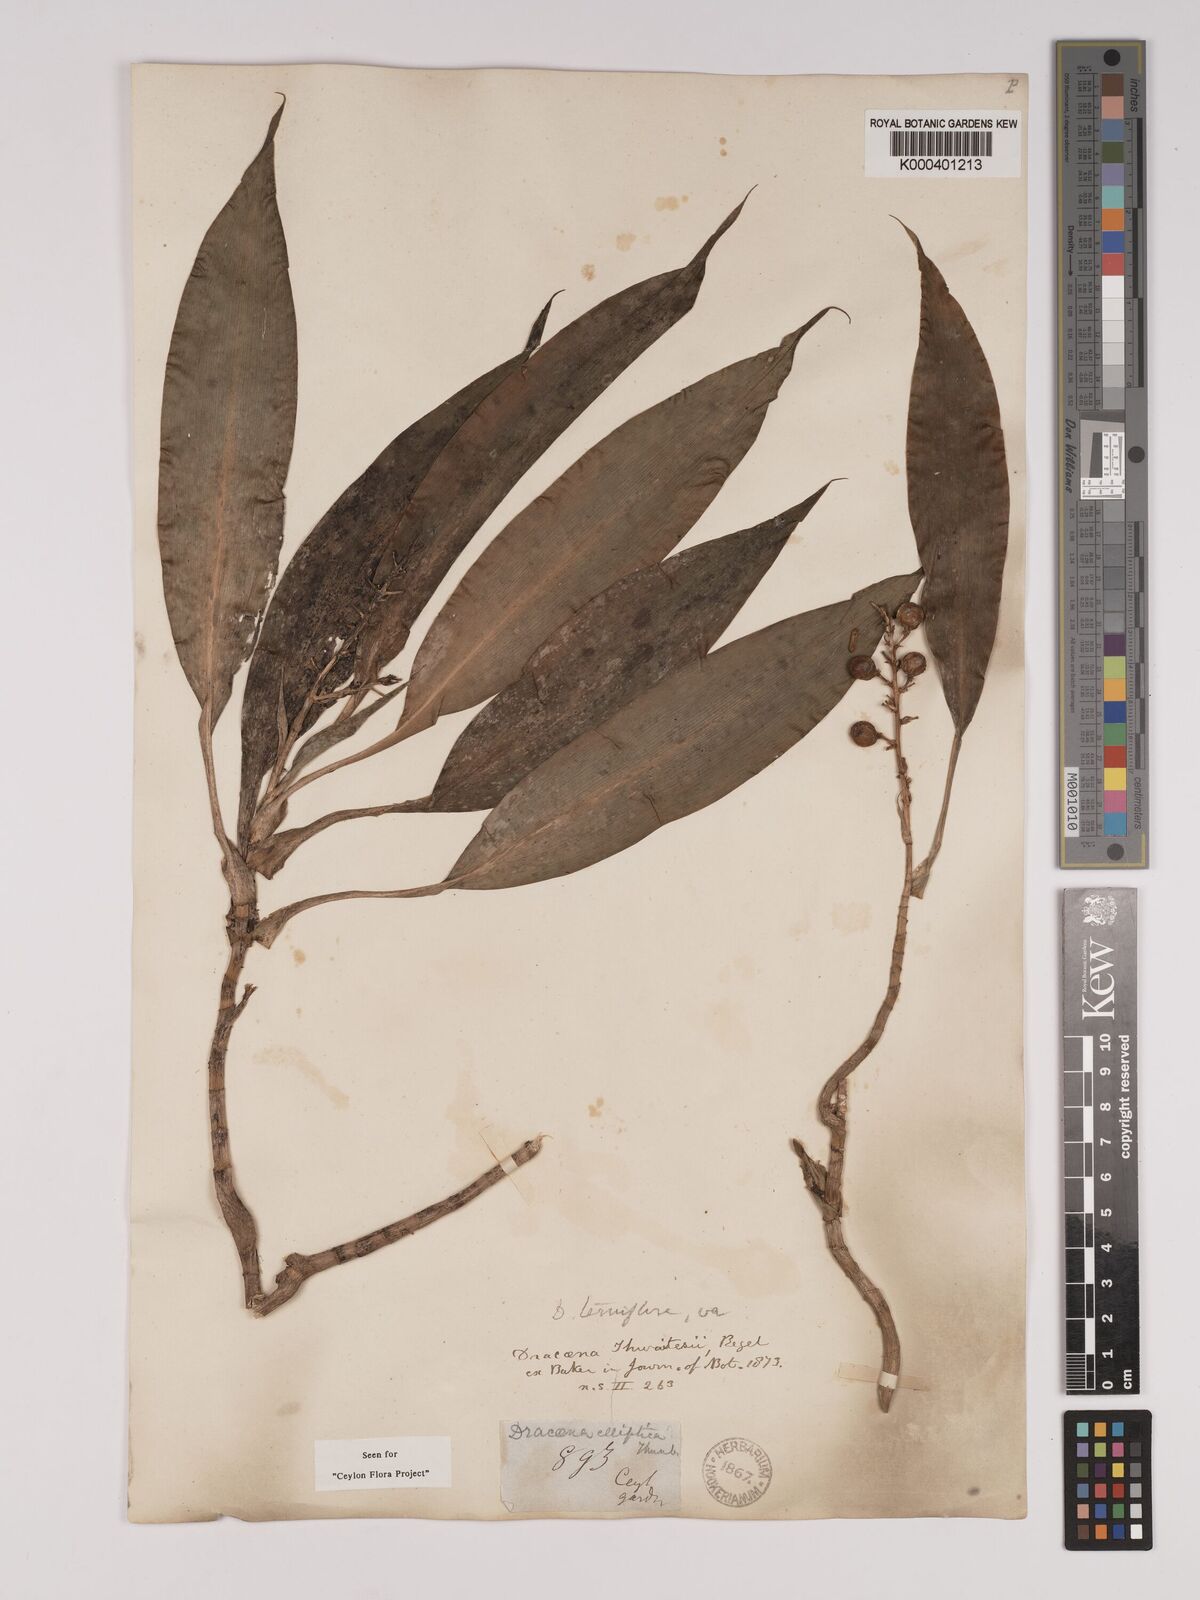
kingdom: Plantae
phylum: Tracheophyta
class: Liliopsida
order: Asparagales
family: Asparagaceae
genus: Dracaena
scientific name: Dracaena thwaitesii
